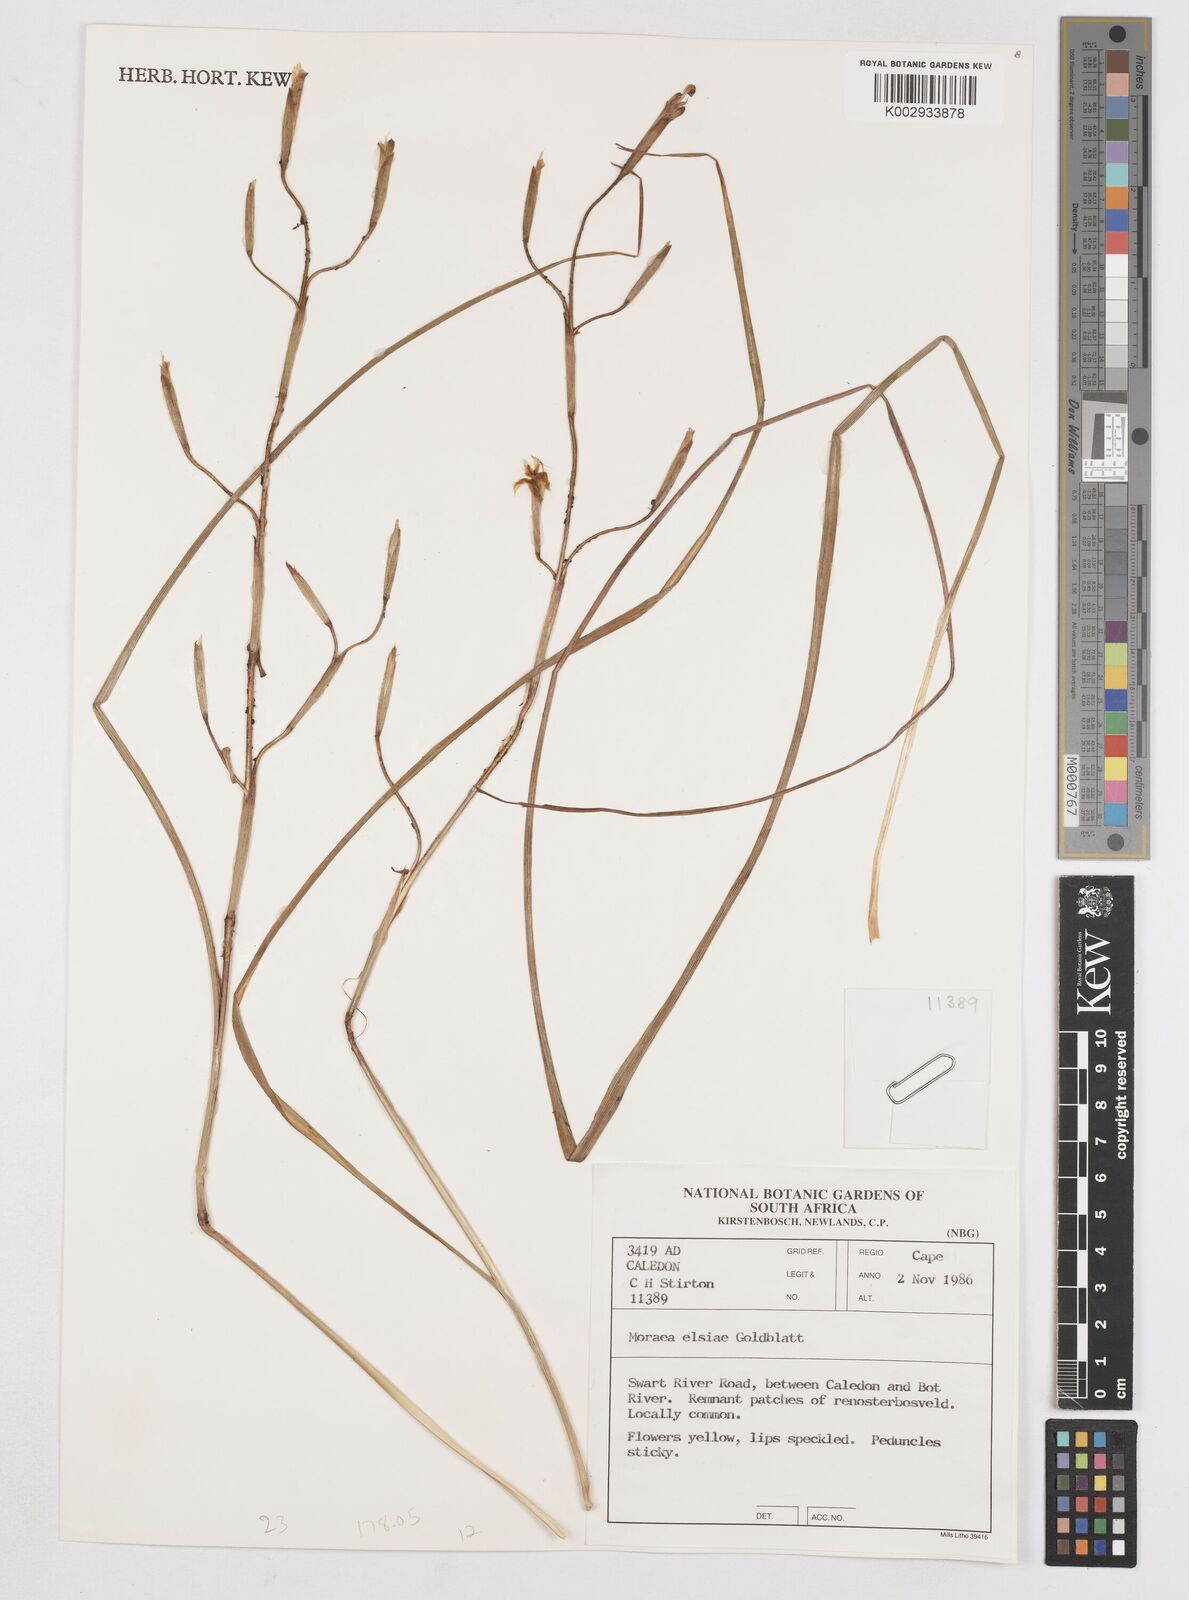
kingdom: Plantae
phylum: Tracheophyta
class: Liliopsida
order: Asparagales
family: Iridaceae
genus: Moraea
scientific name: Moraea elsiae
